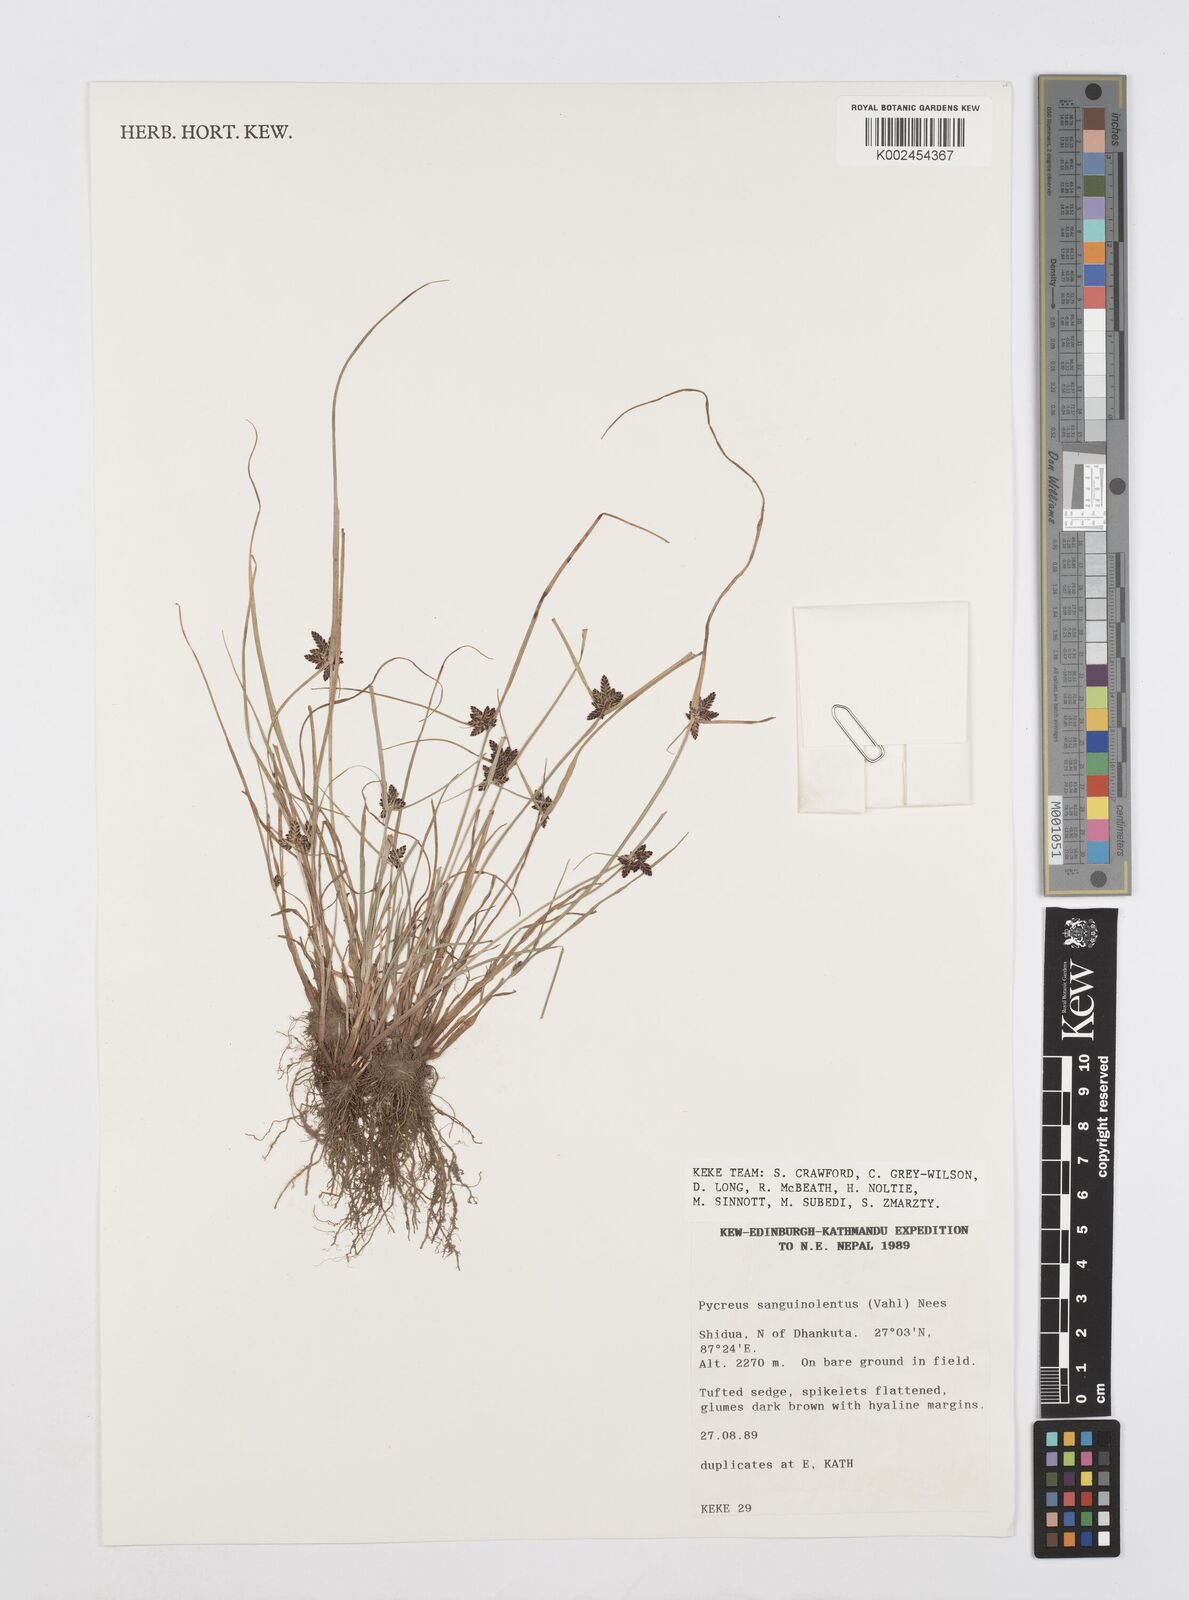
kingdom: Plantae
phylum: Tracheophyta
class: Liliopsida
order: Poales
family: Cyperaceae
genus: Cyperus
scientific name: Cyperus sanguinolentus
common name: Purpleglume flatsedge
